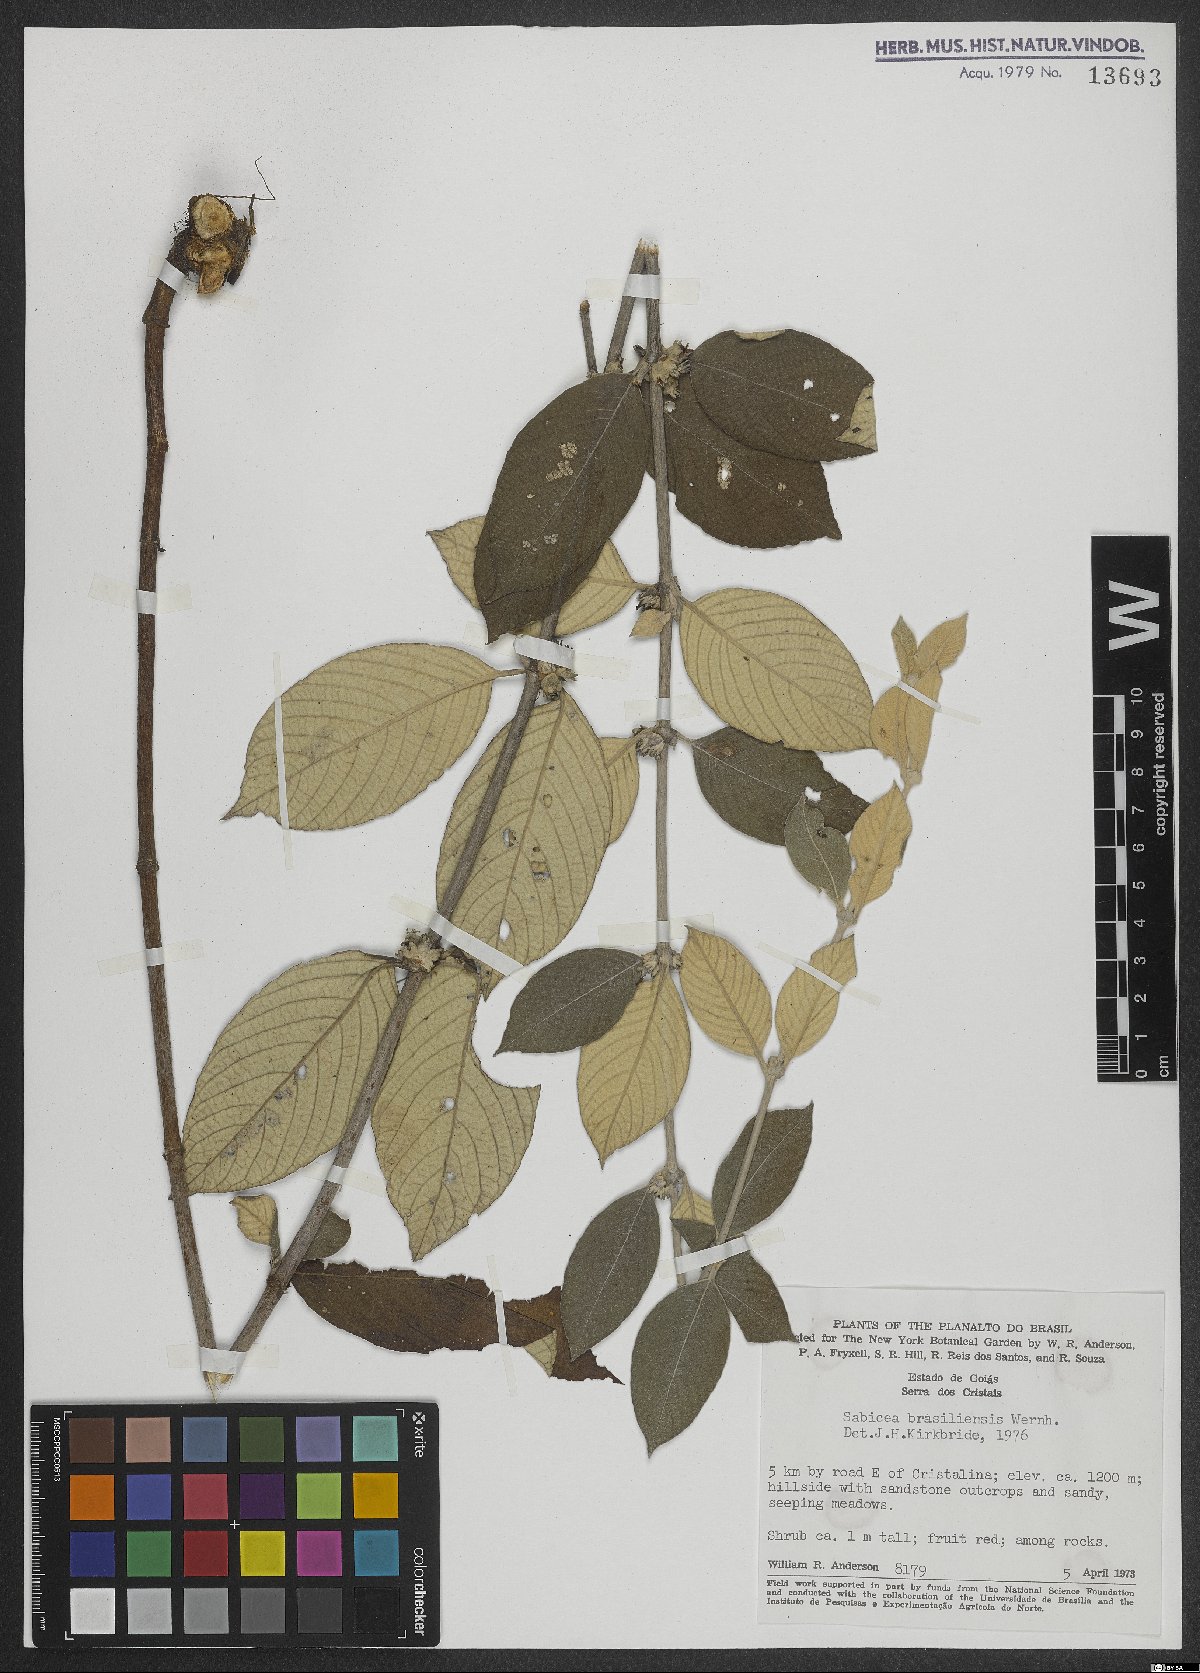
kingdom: Plantae
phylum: Tracheophyta
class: Magnoliopsida
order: Gentianales
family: Rubiaceae
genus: Sabicea
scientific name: Sabicea brasiliensis
